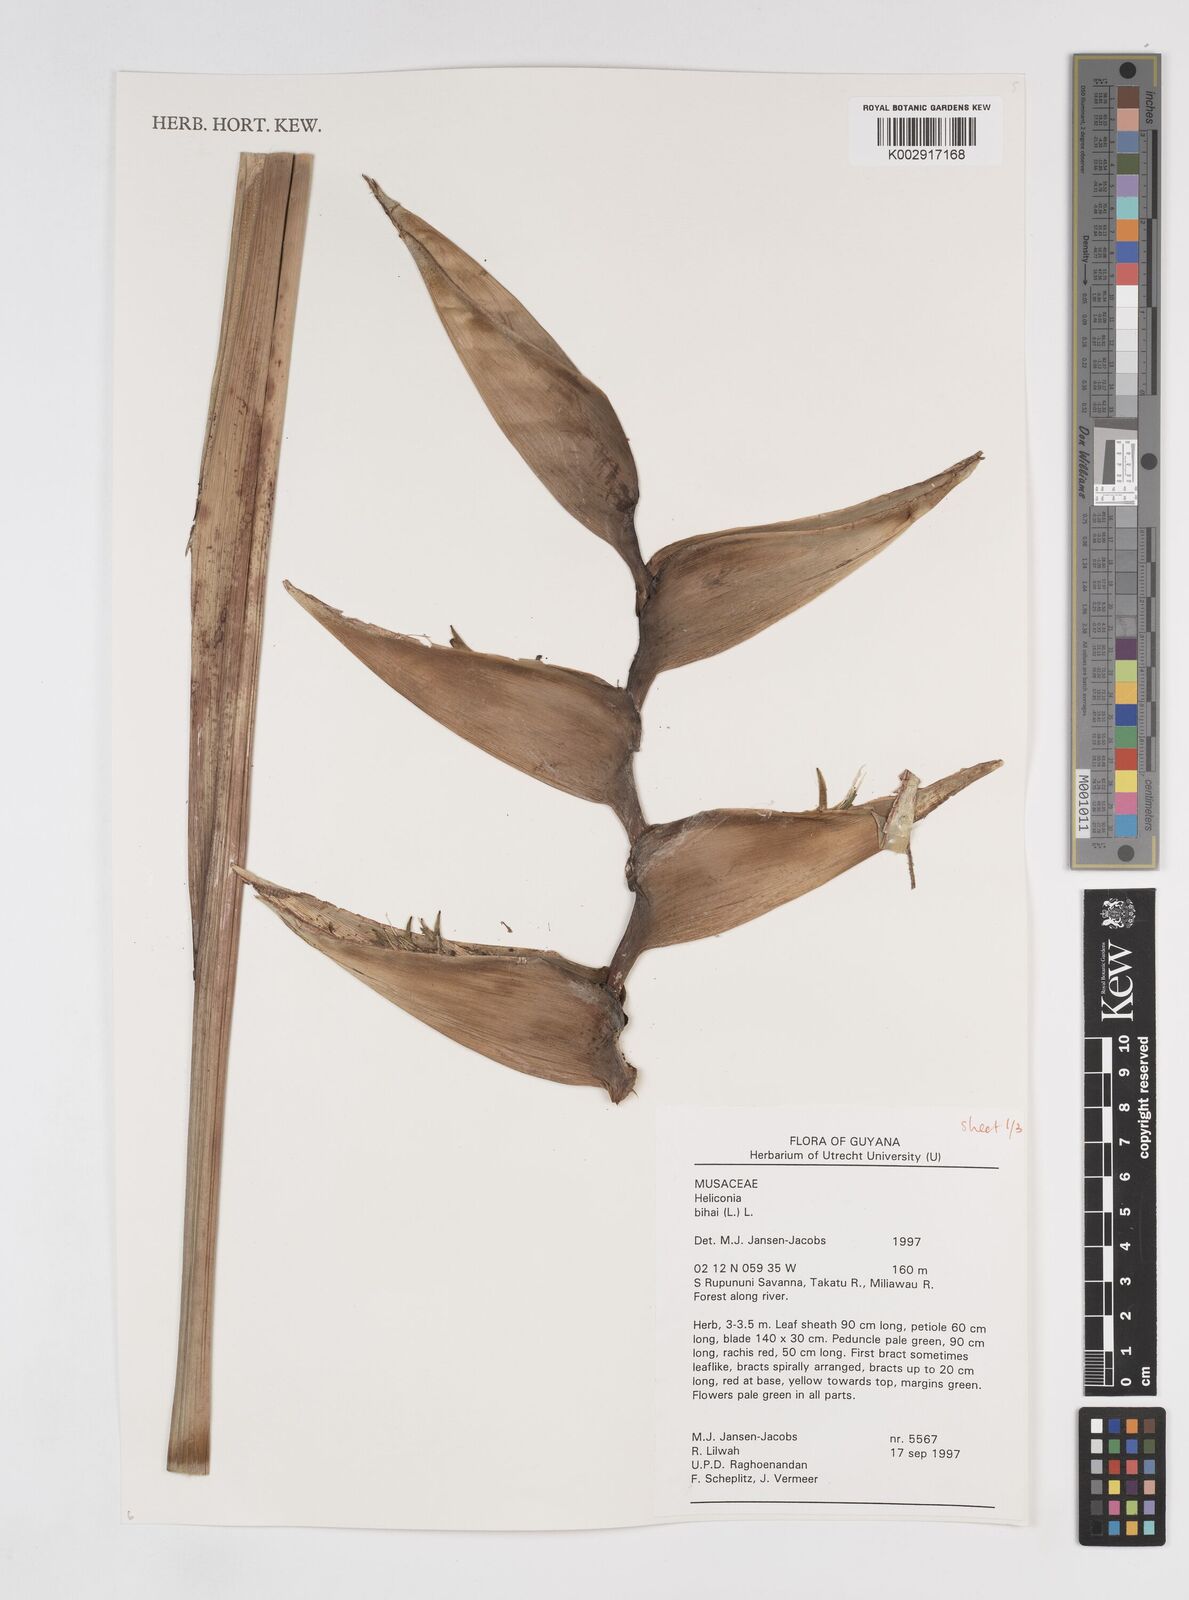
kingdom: Plantae
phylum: Tracheophyta
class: Liliopsida
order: Zingiberales
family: Heliconiaceae
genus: Heliconia
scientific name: Heliconia bihai
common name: Macaw flower
